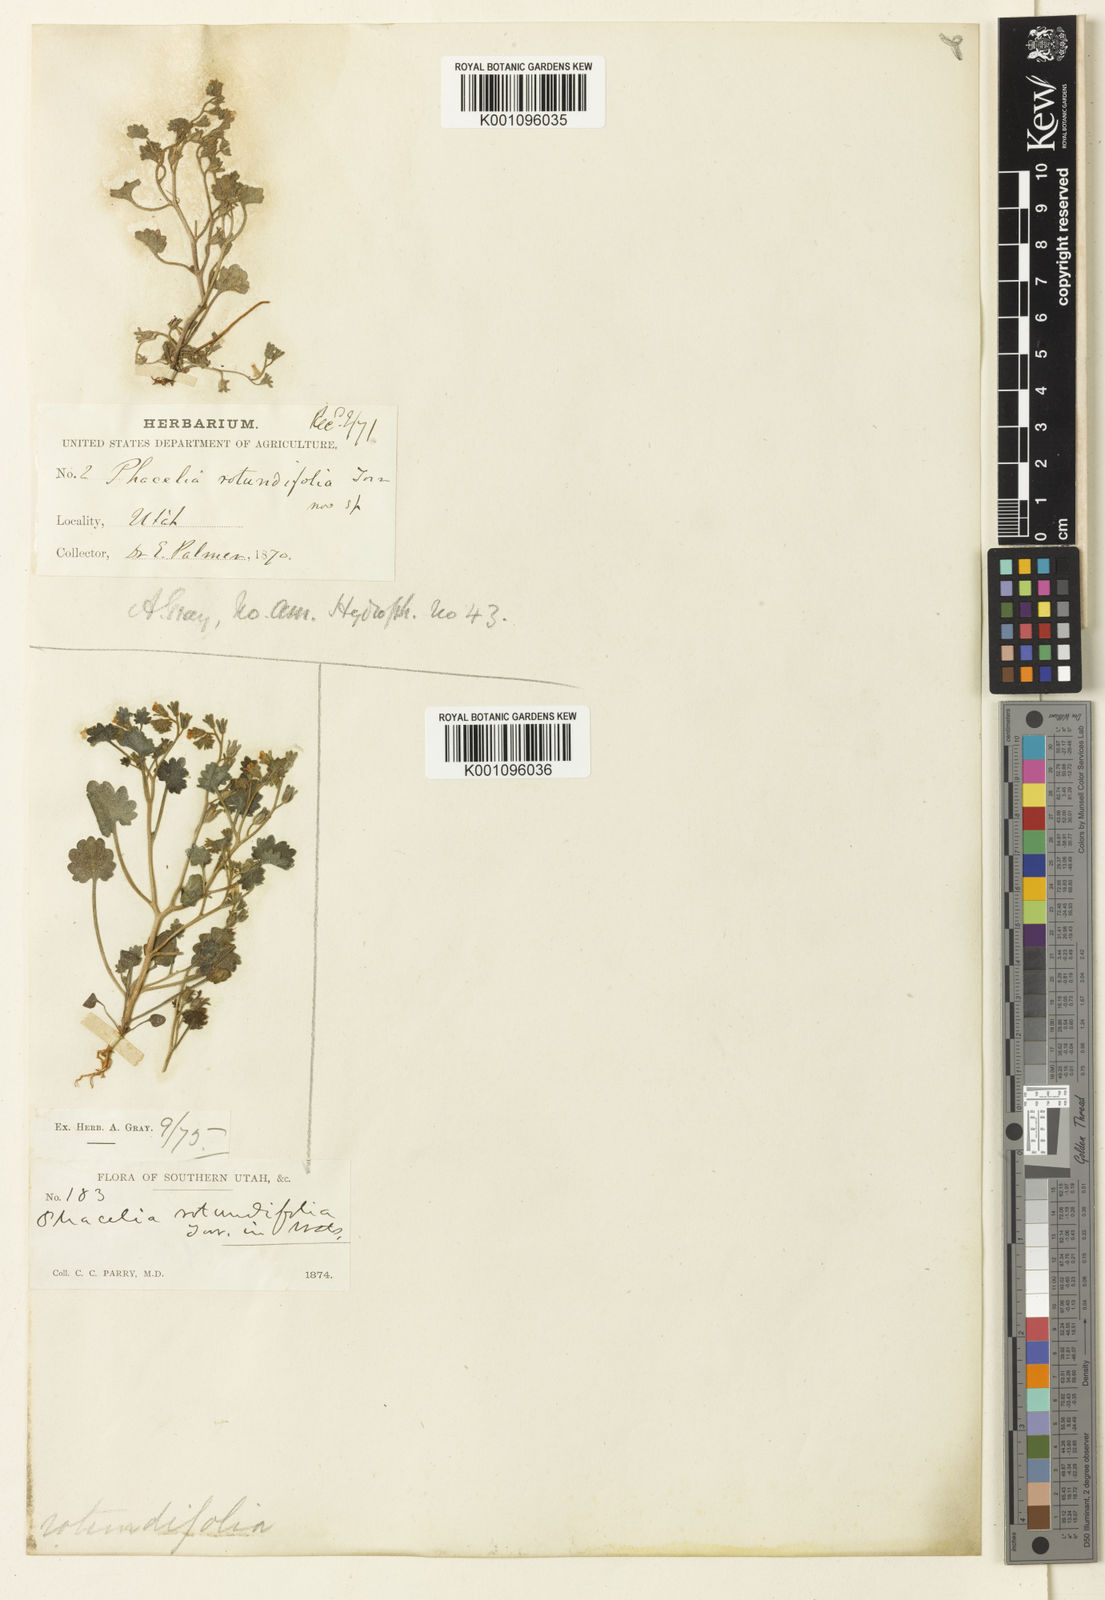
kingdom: Plantae
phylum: Tracheophyta
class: Magnoliopsida
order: Boraginales
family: Hydrophyllaceae
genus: Phacelia
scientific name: Phacelia
